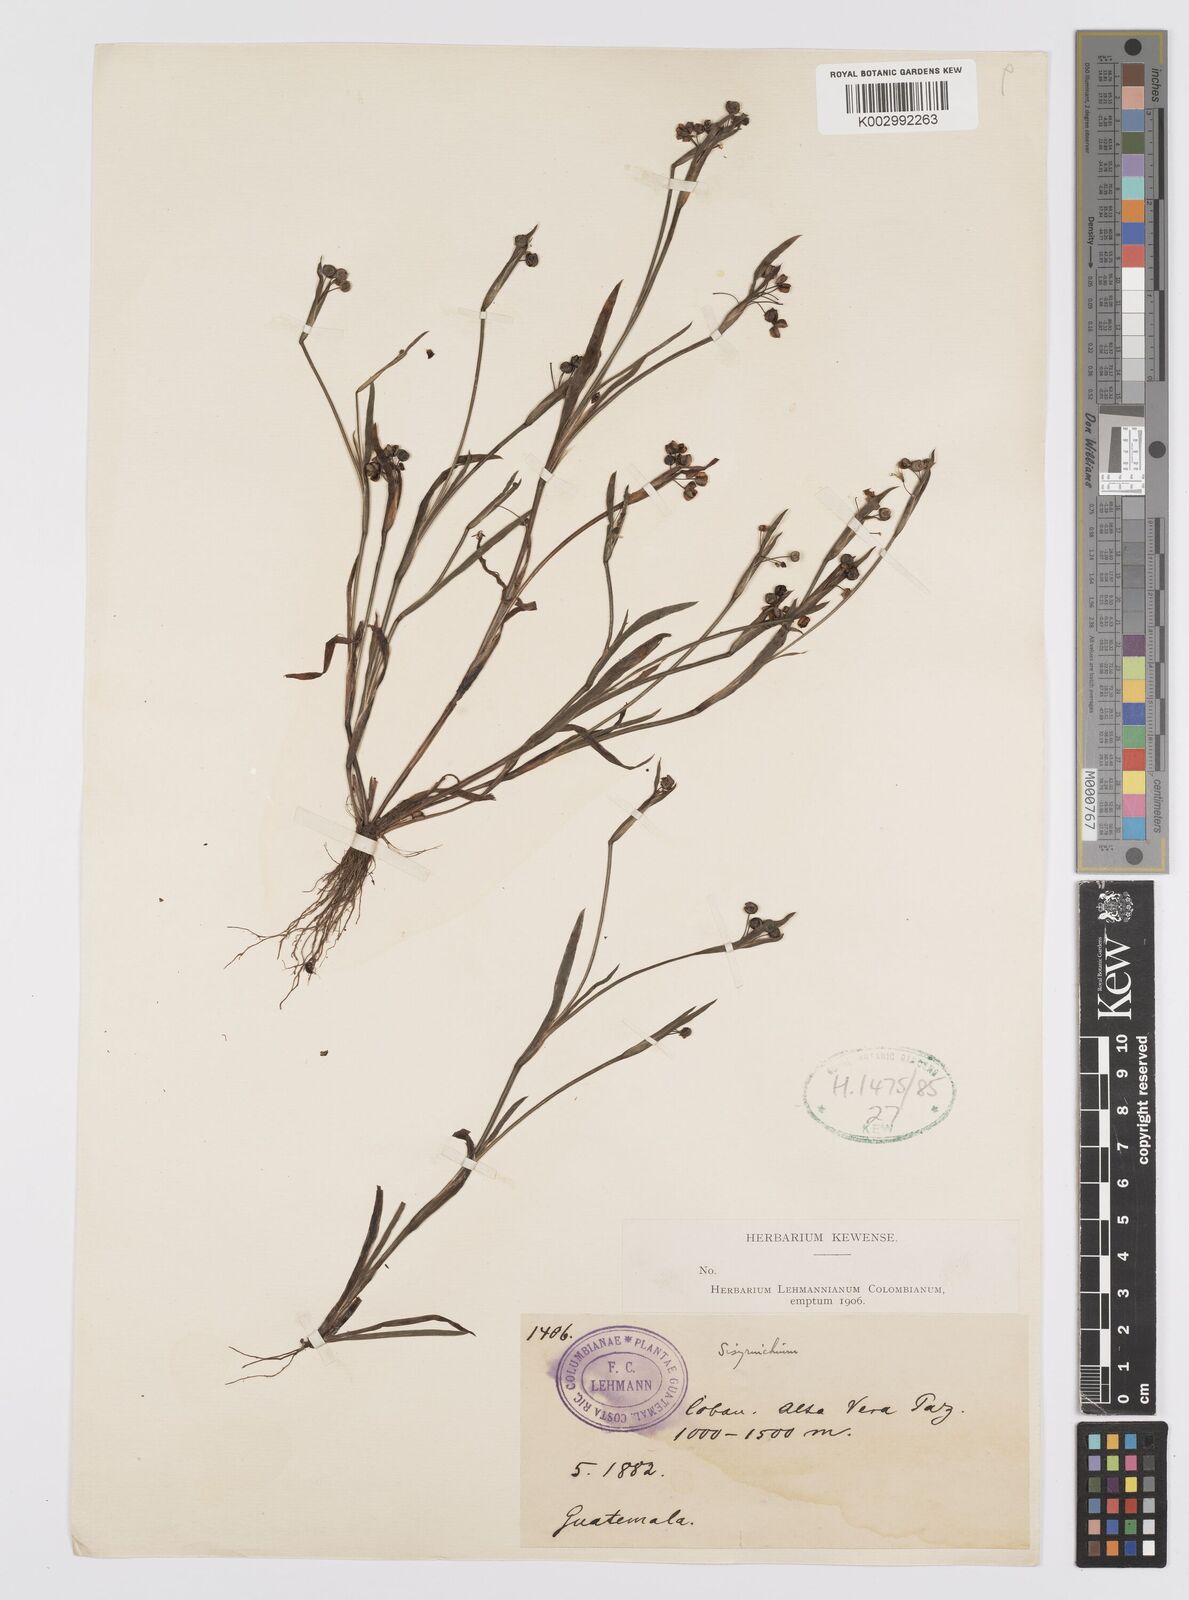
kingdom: Plantae
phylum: Tracheophyta
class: Liliopsida
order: Asparagales
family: Iridaceae
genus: Sisyrinchium
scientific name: Sisyrinchium
